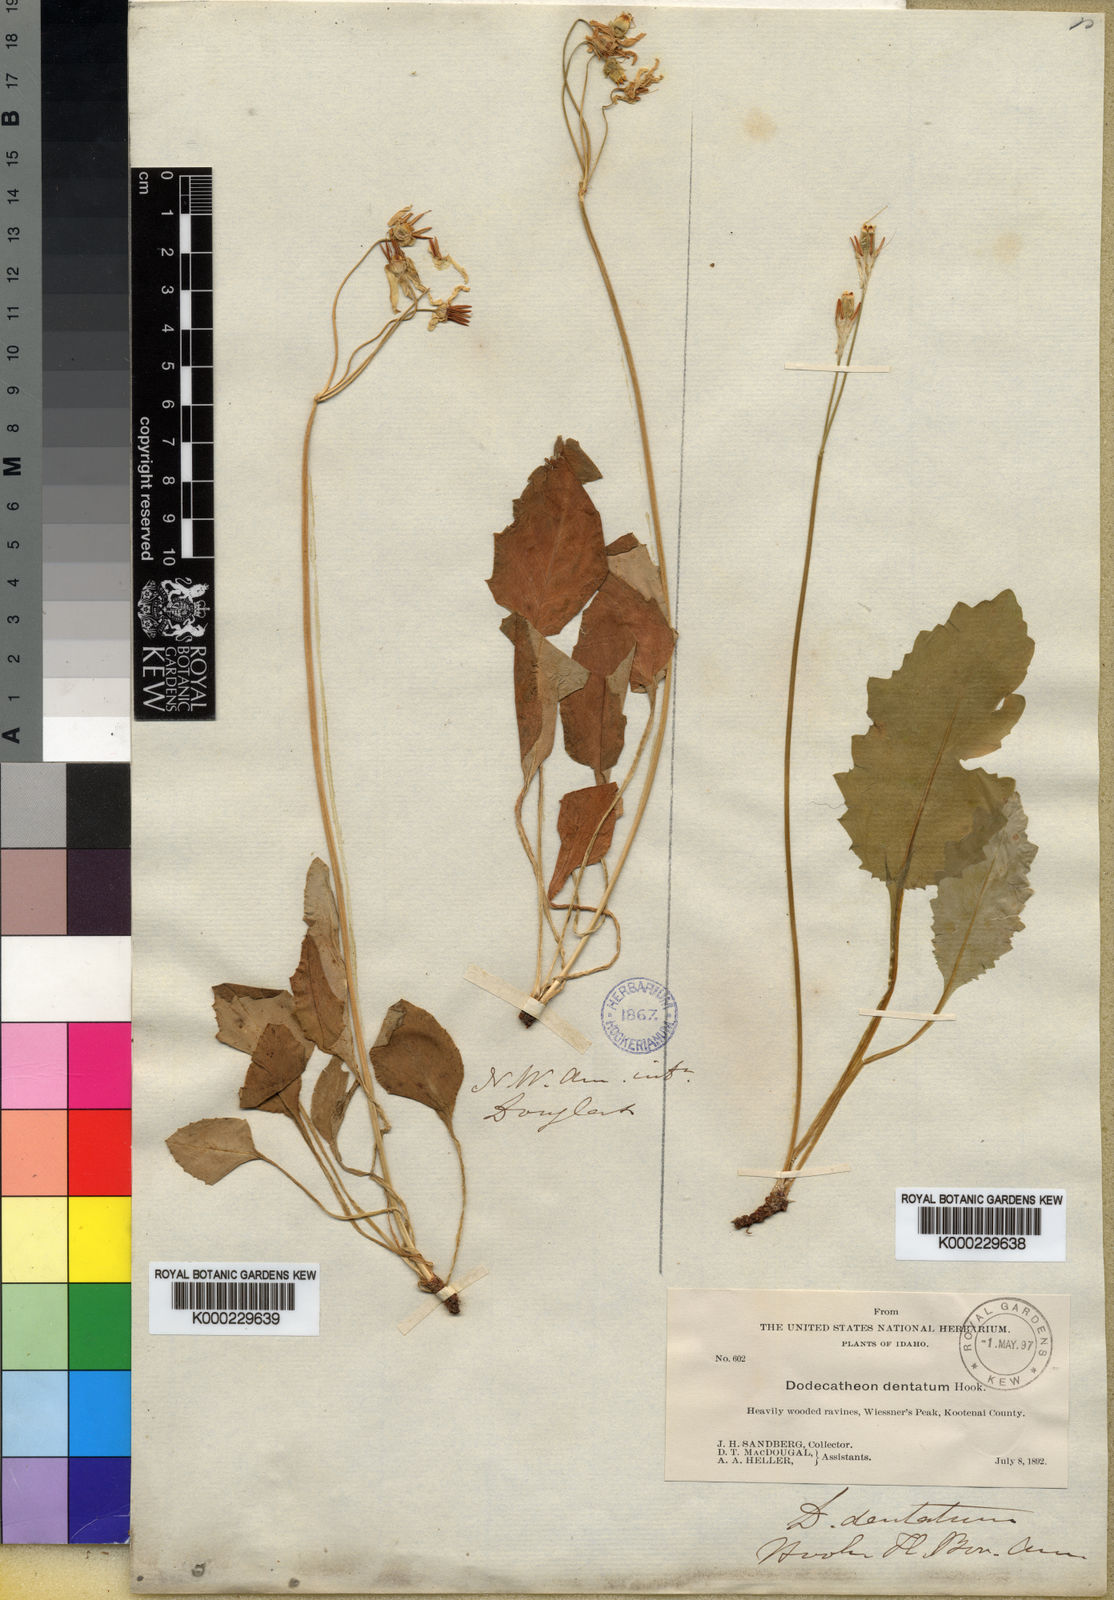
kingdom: Plantae
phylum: Tracheophyta
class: Magnoliopsida
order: Ericales
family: Primulaceae
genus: Dodecatheon
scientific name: Dodecatheon dentatum
